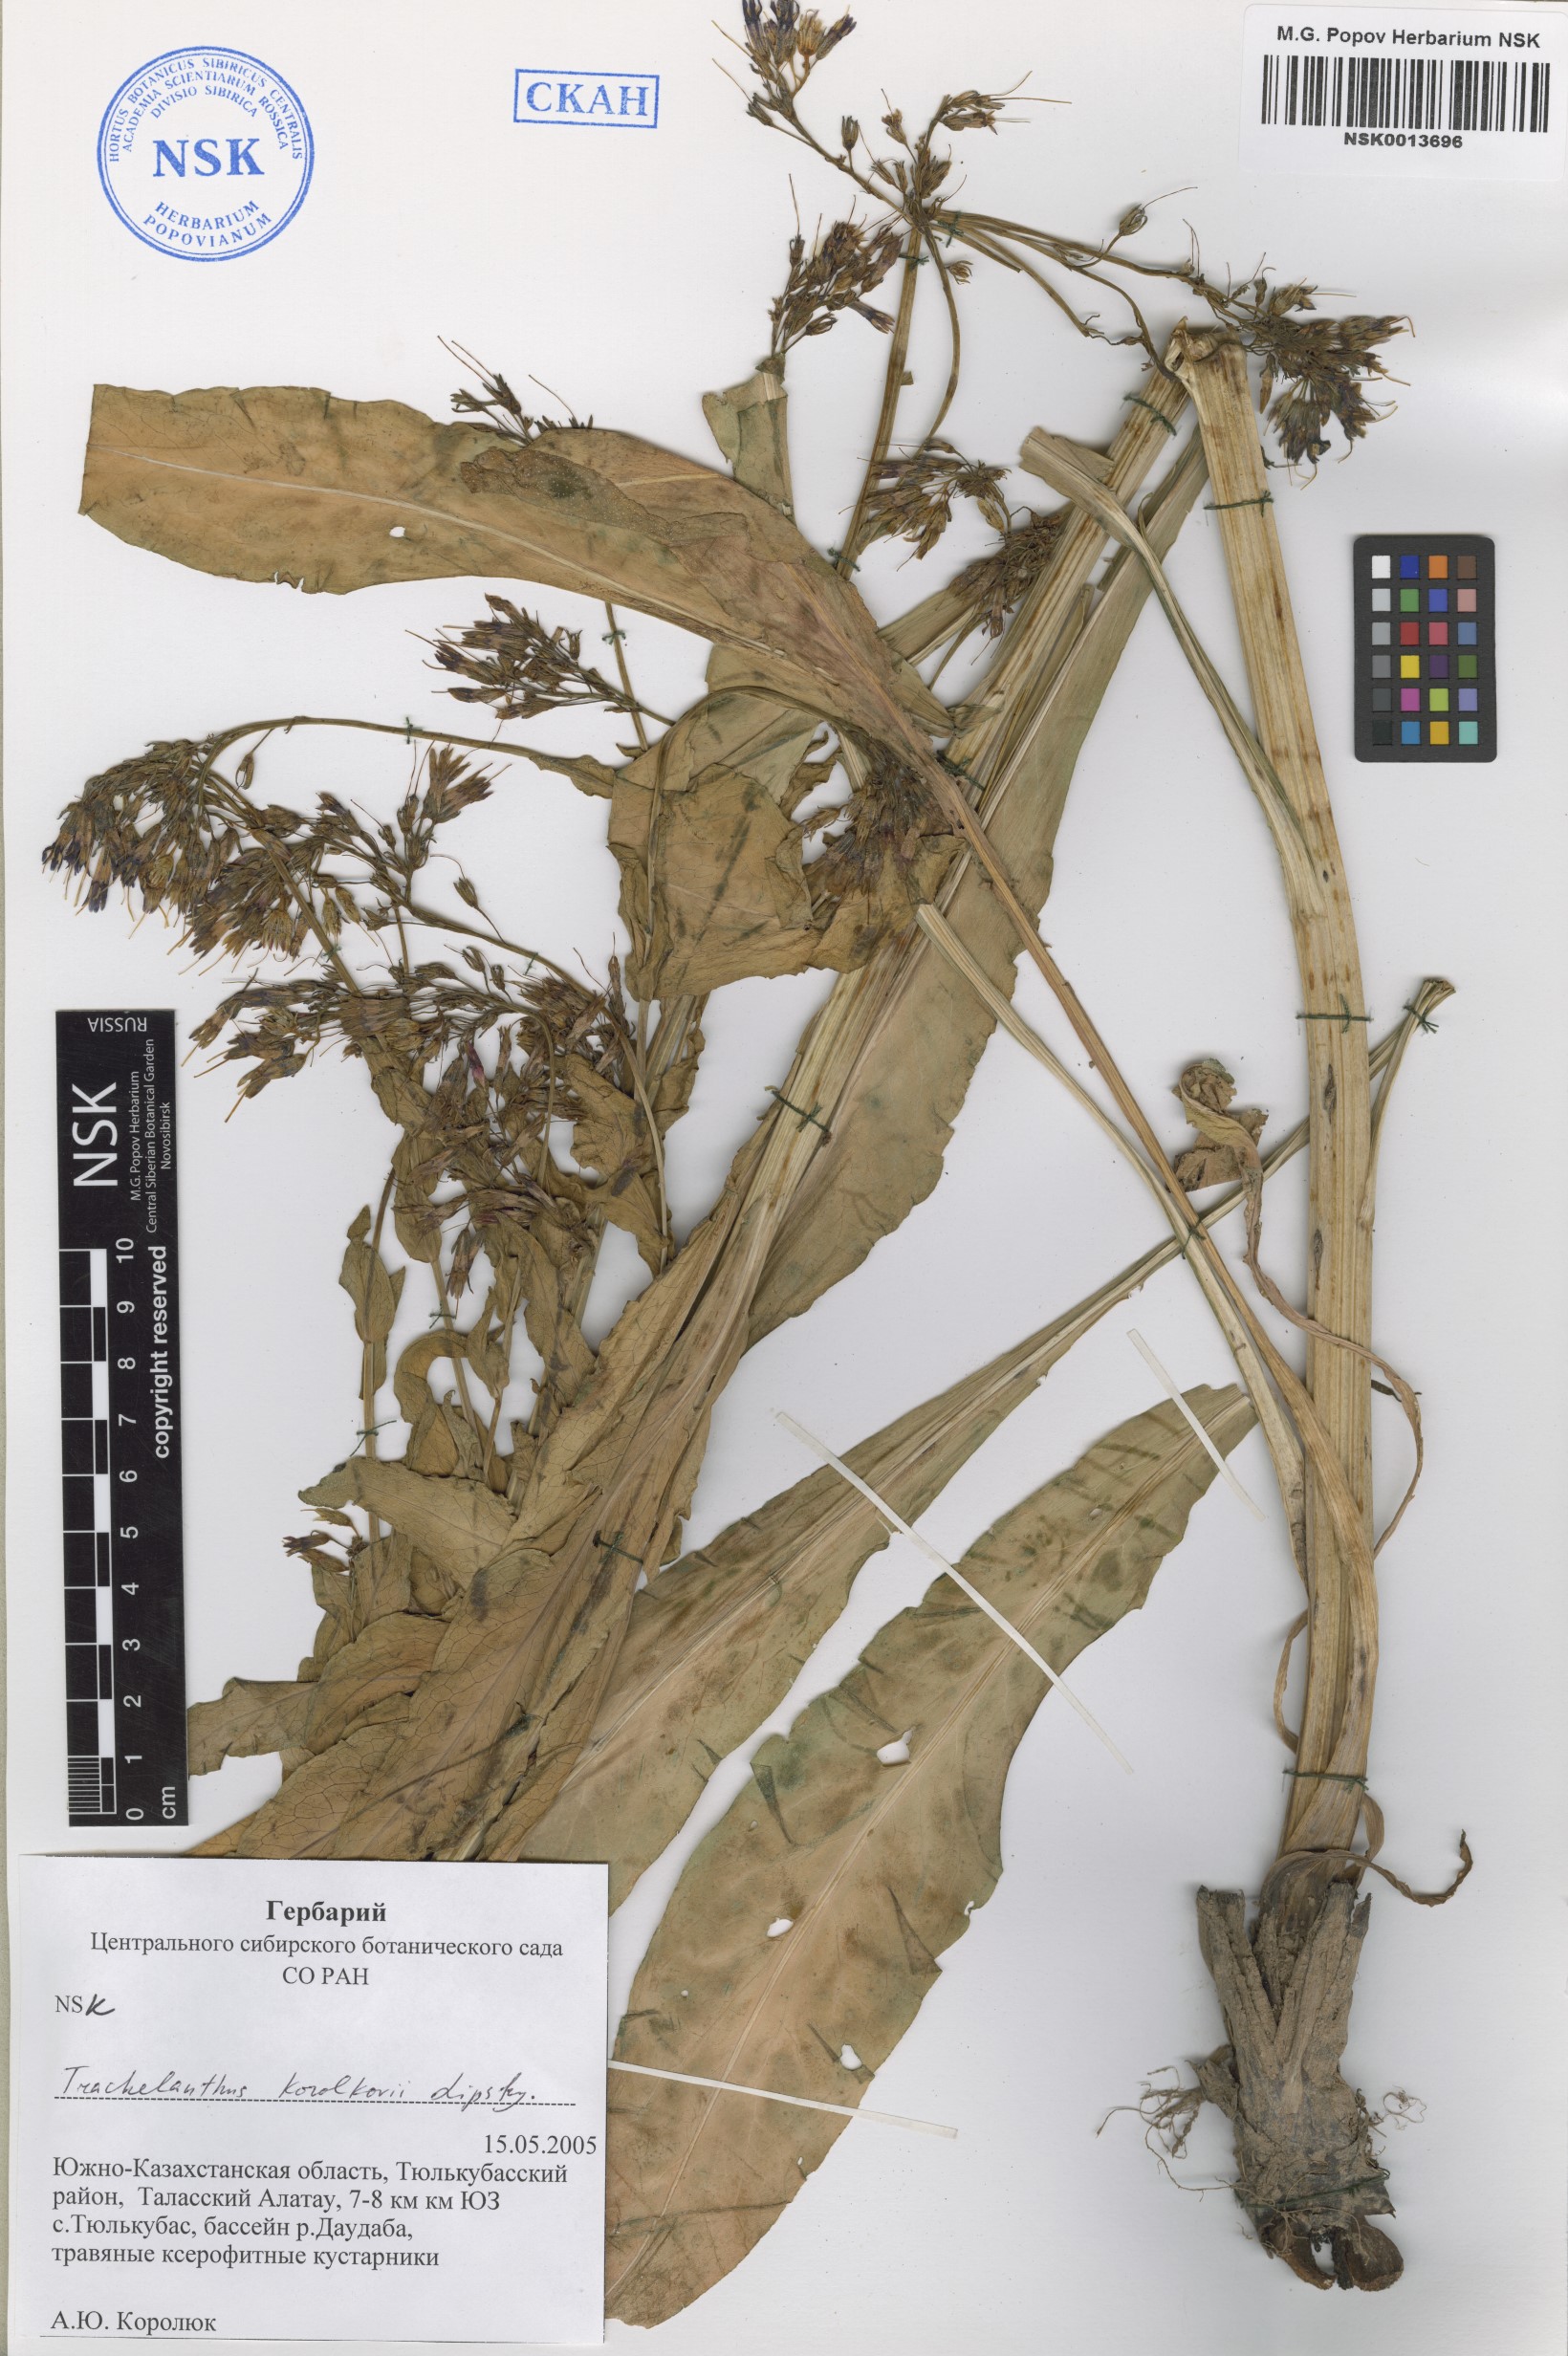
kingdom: Plantae
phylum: Tracheophyta
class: Magnoliopsida
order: Boraginales
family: Boraginaceae
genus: Lindelofia
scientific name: Lindelofia korolkowii
